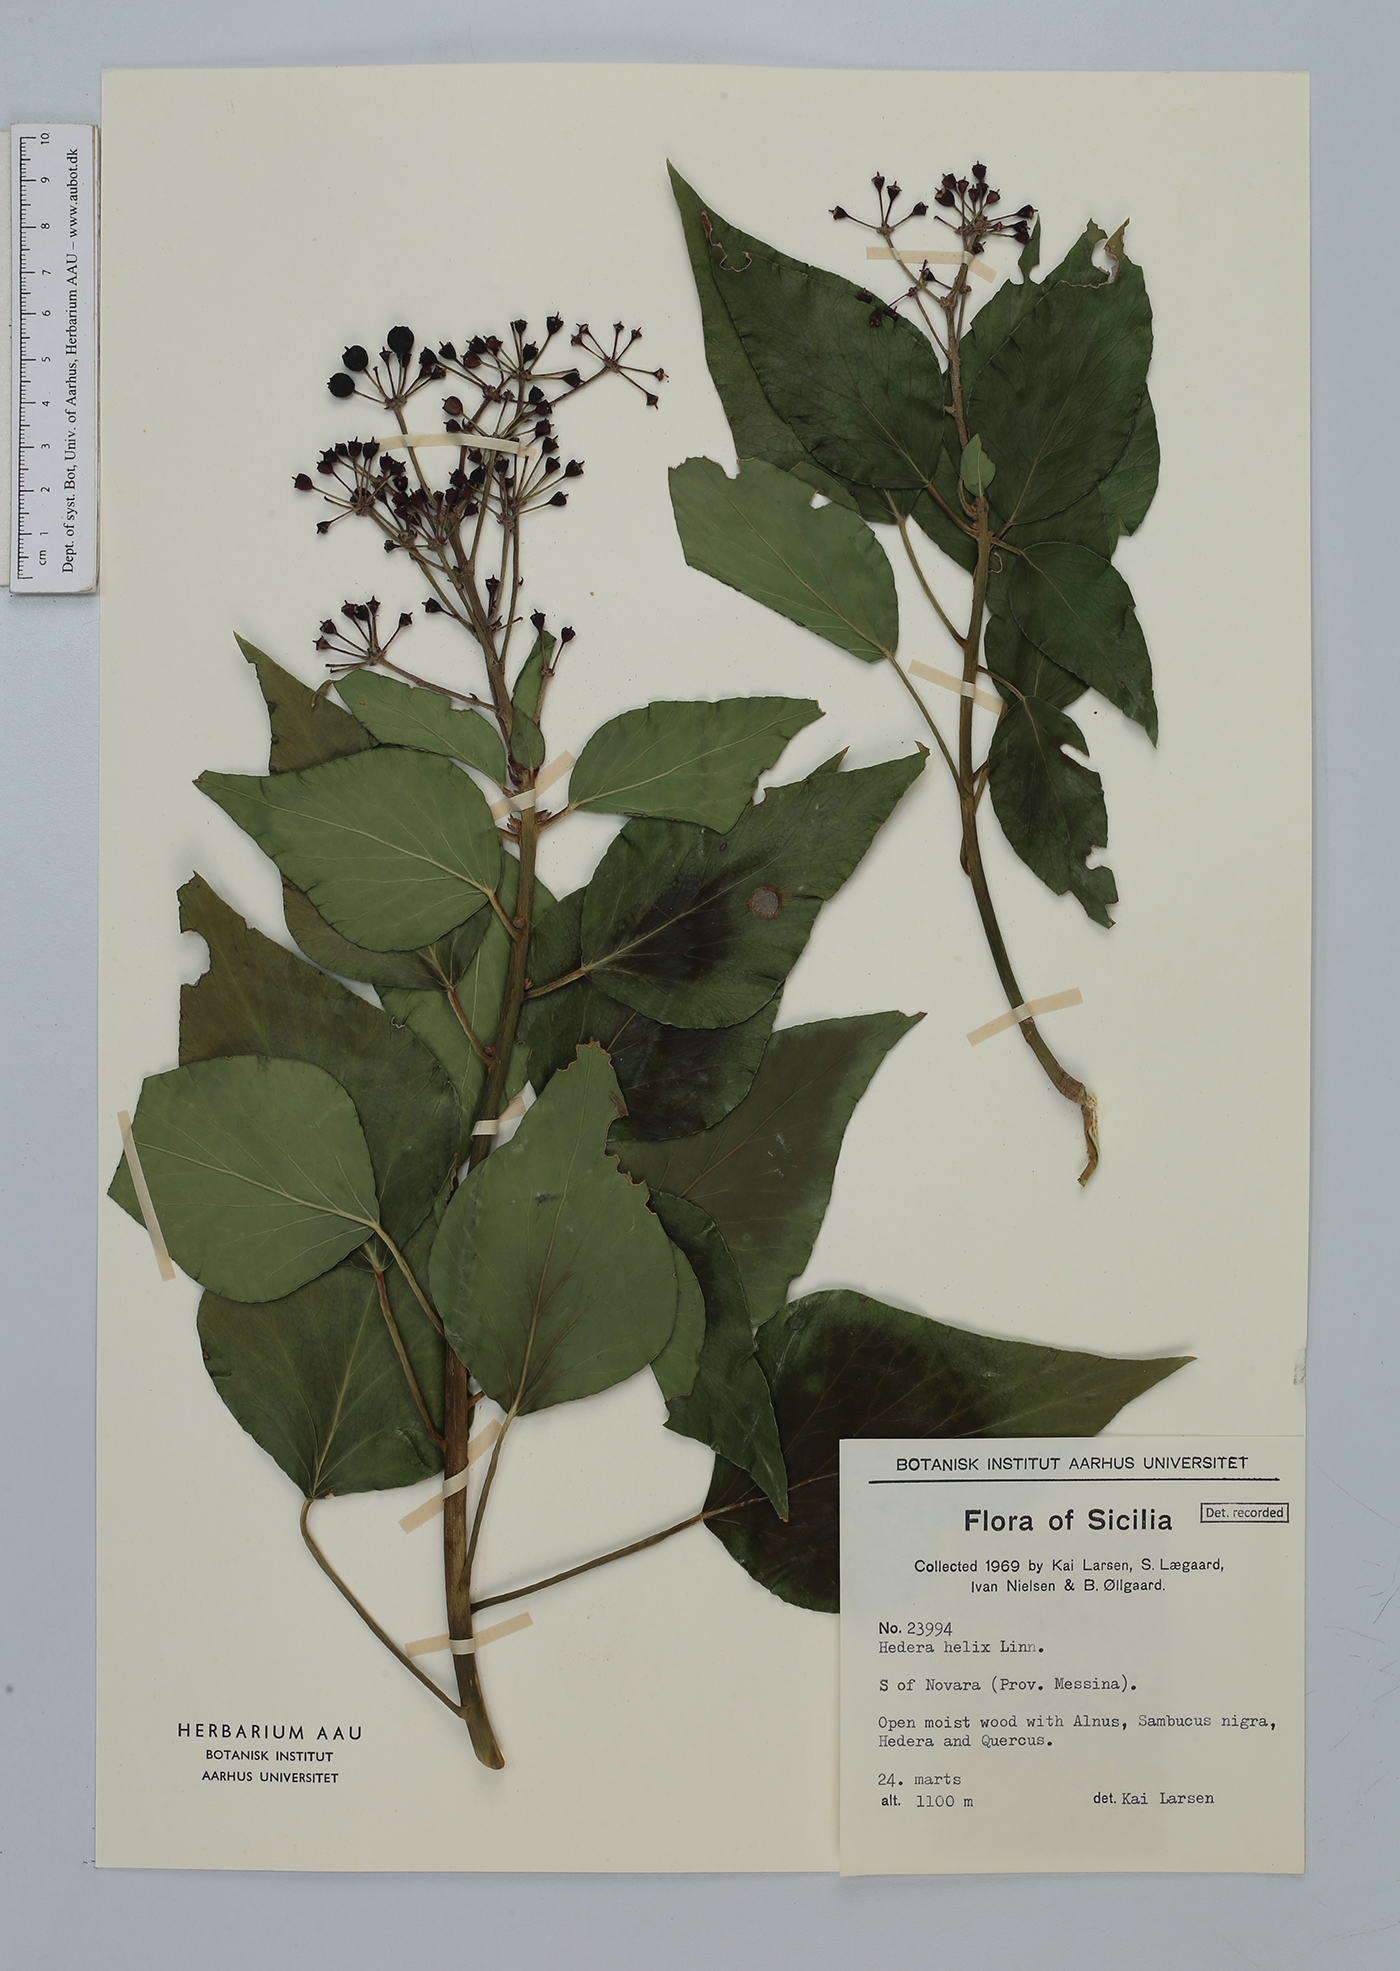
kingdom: Plantae
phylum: Tracheophyta
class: Magnoliopsida
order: Apiales
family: Araliaceae
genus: Hedera
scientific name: Hedera helix
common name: Ivy
